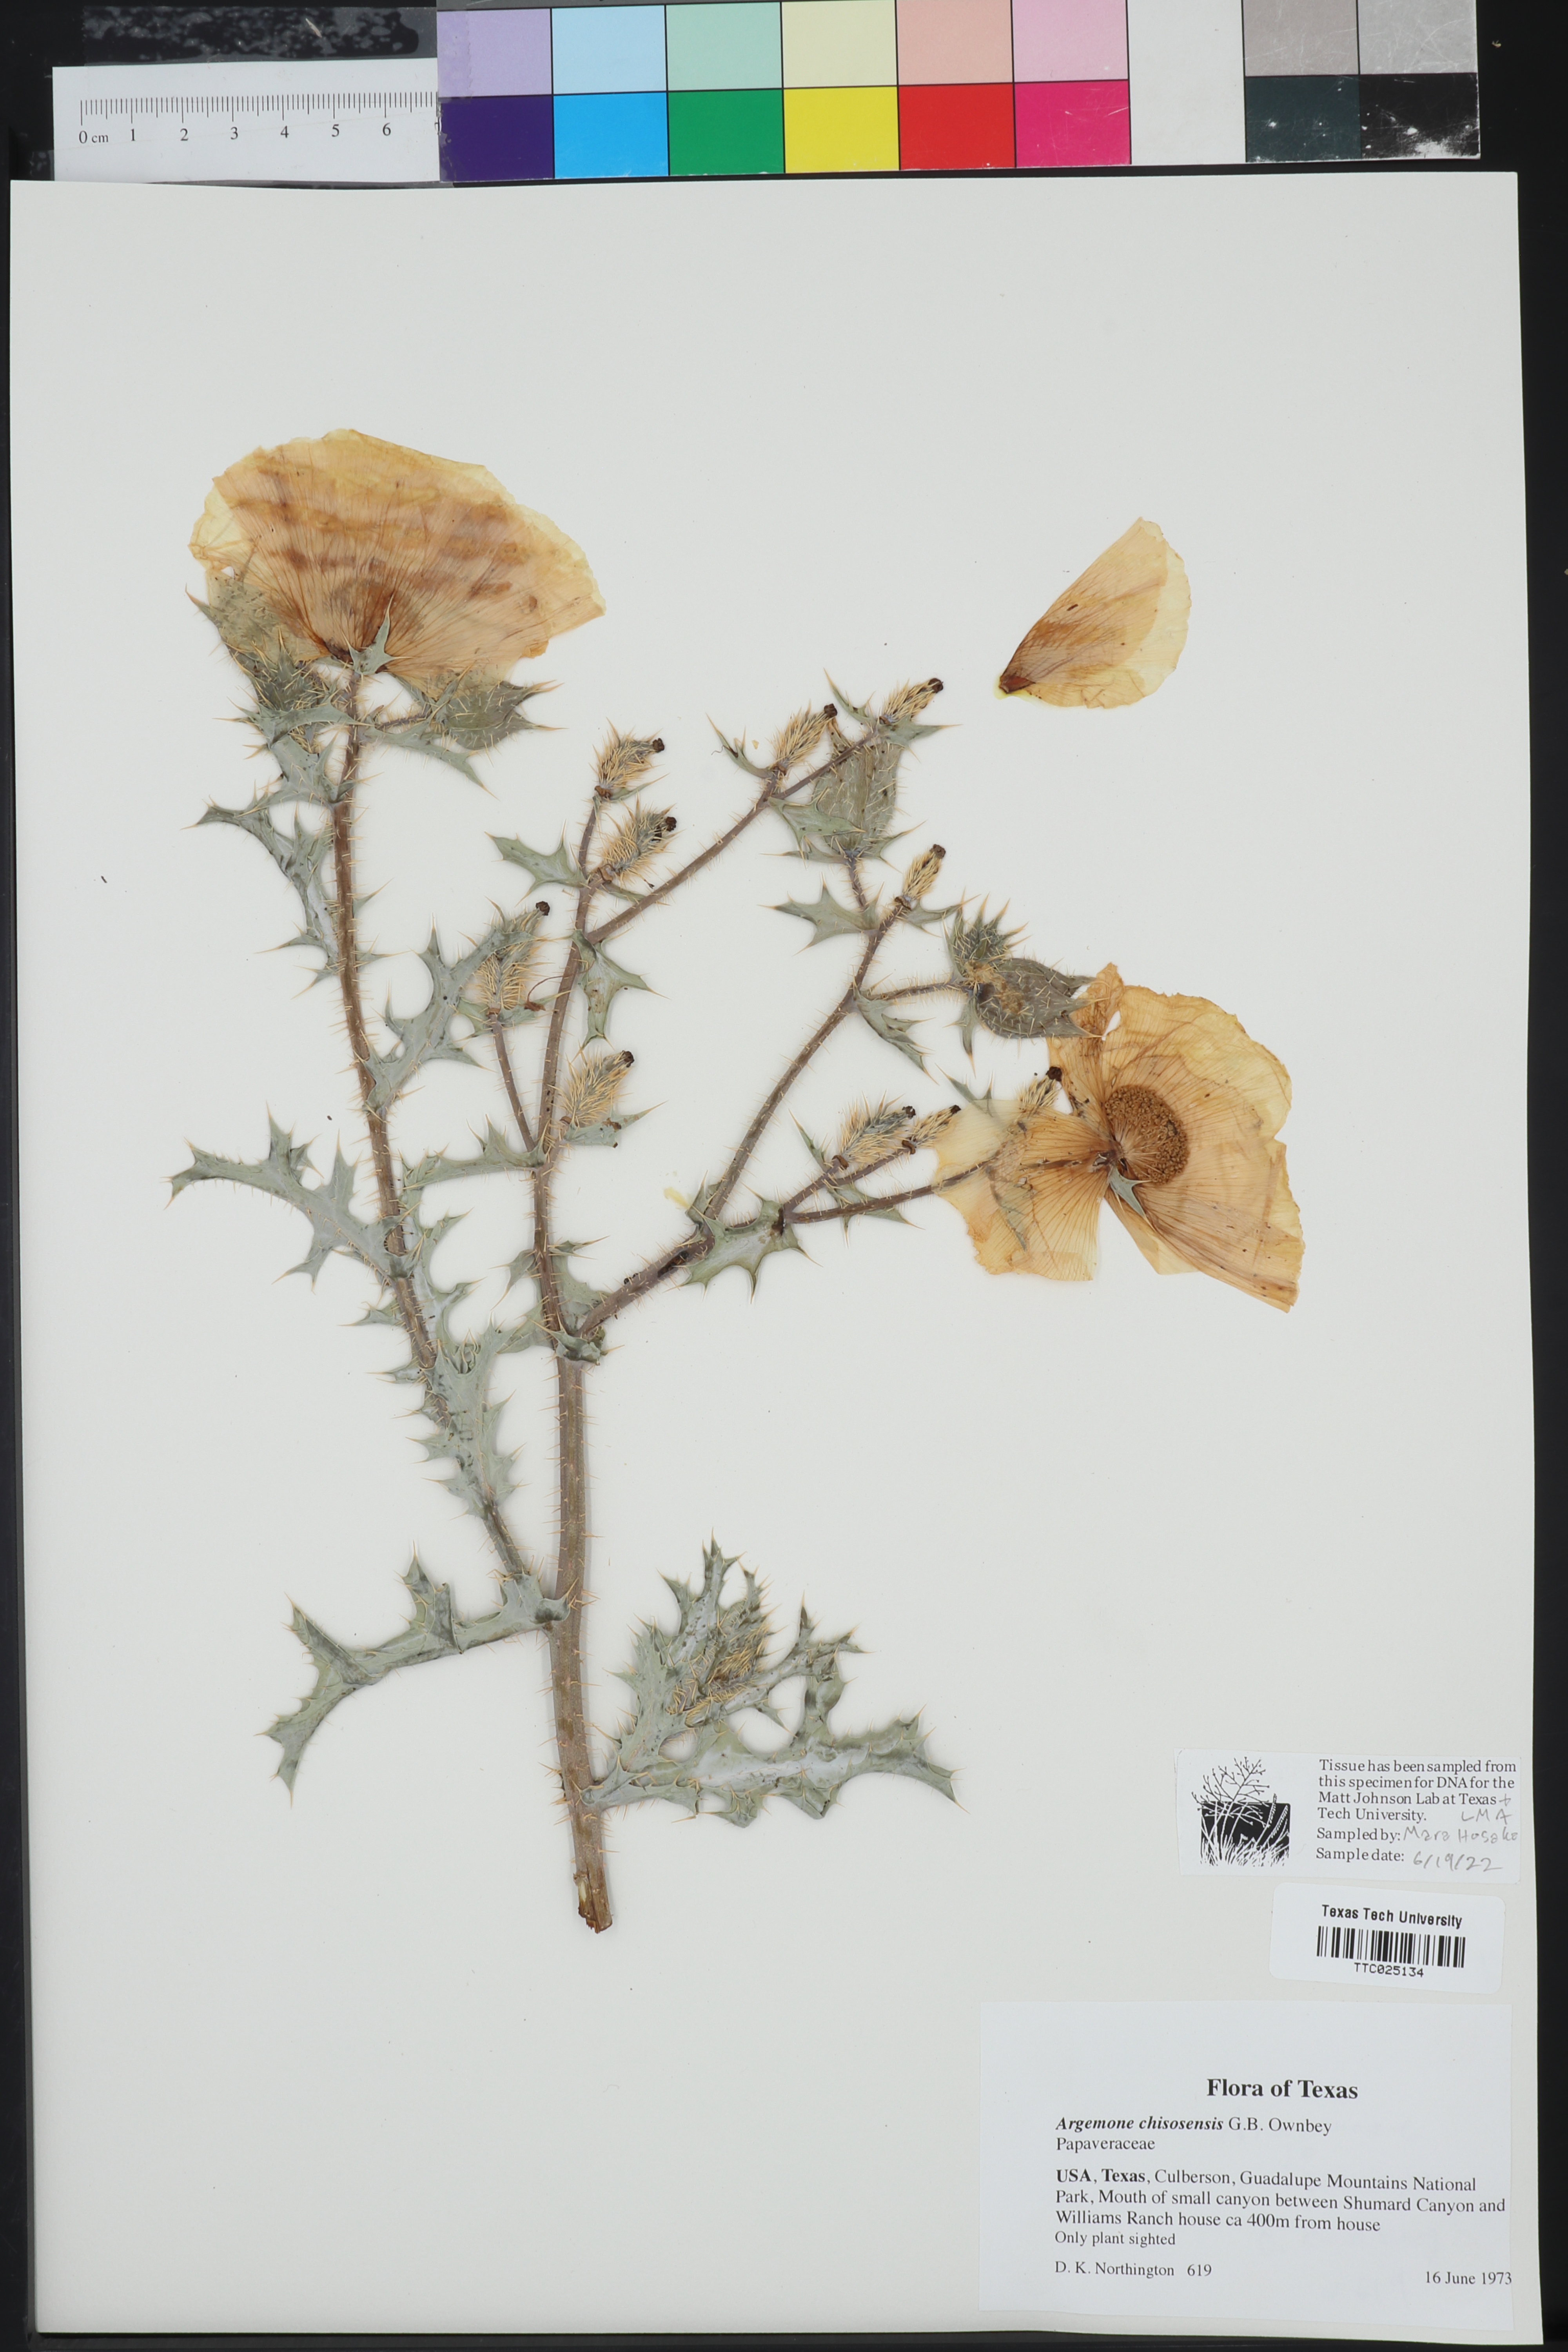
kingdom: Plantae
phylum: Tracheophyta
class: Magnoliopsida
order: Ranunculales
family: Papaveraceae
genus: Argemone
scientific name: Argemone chisosensis
